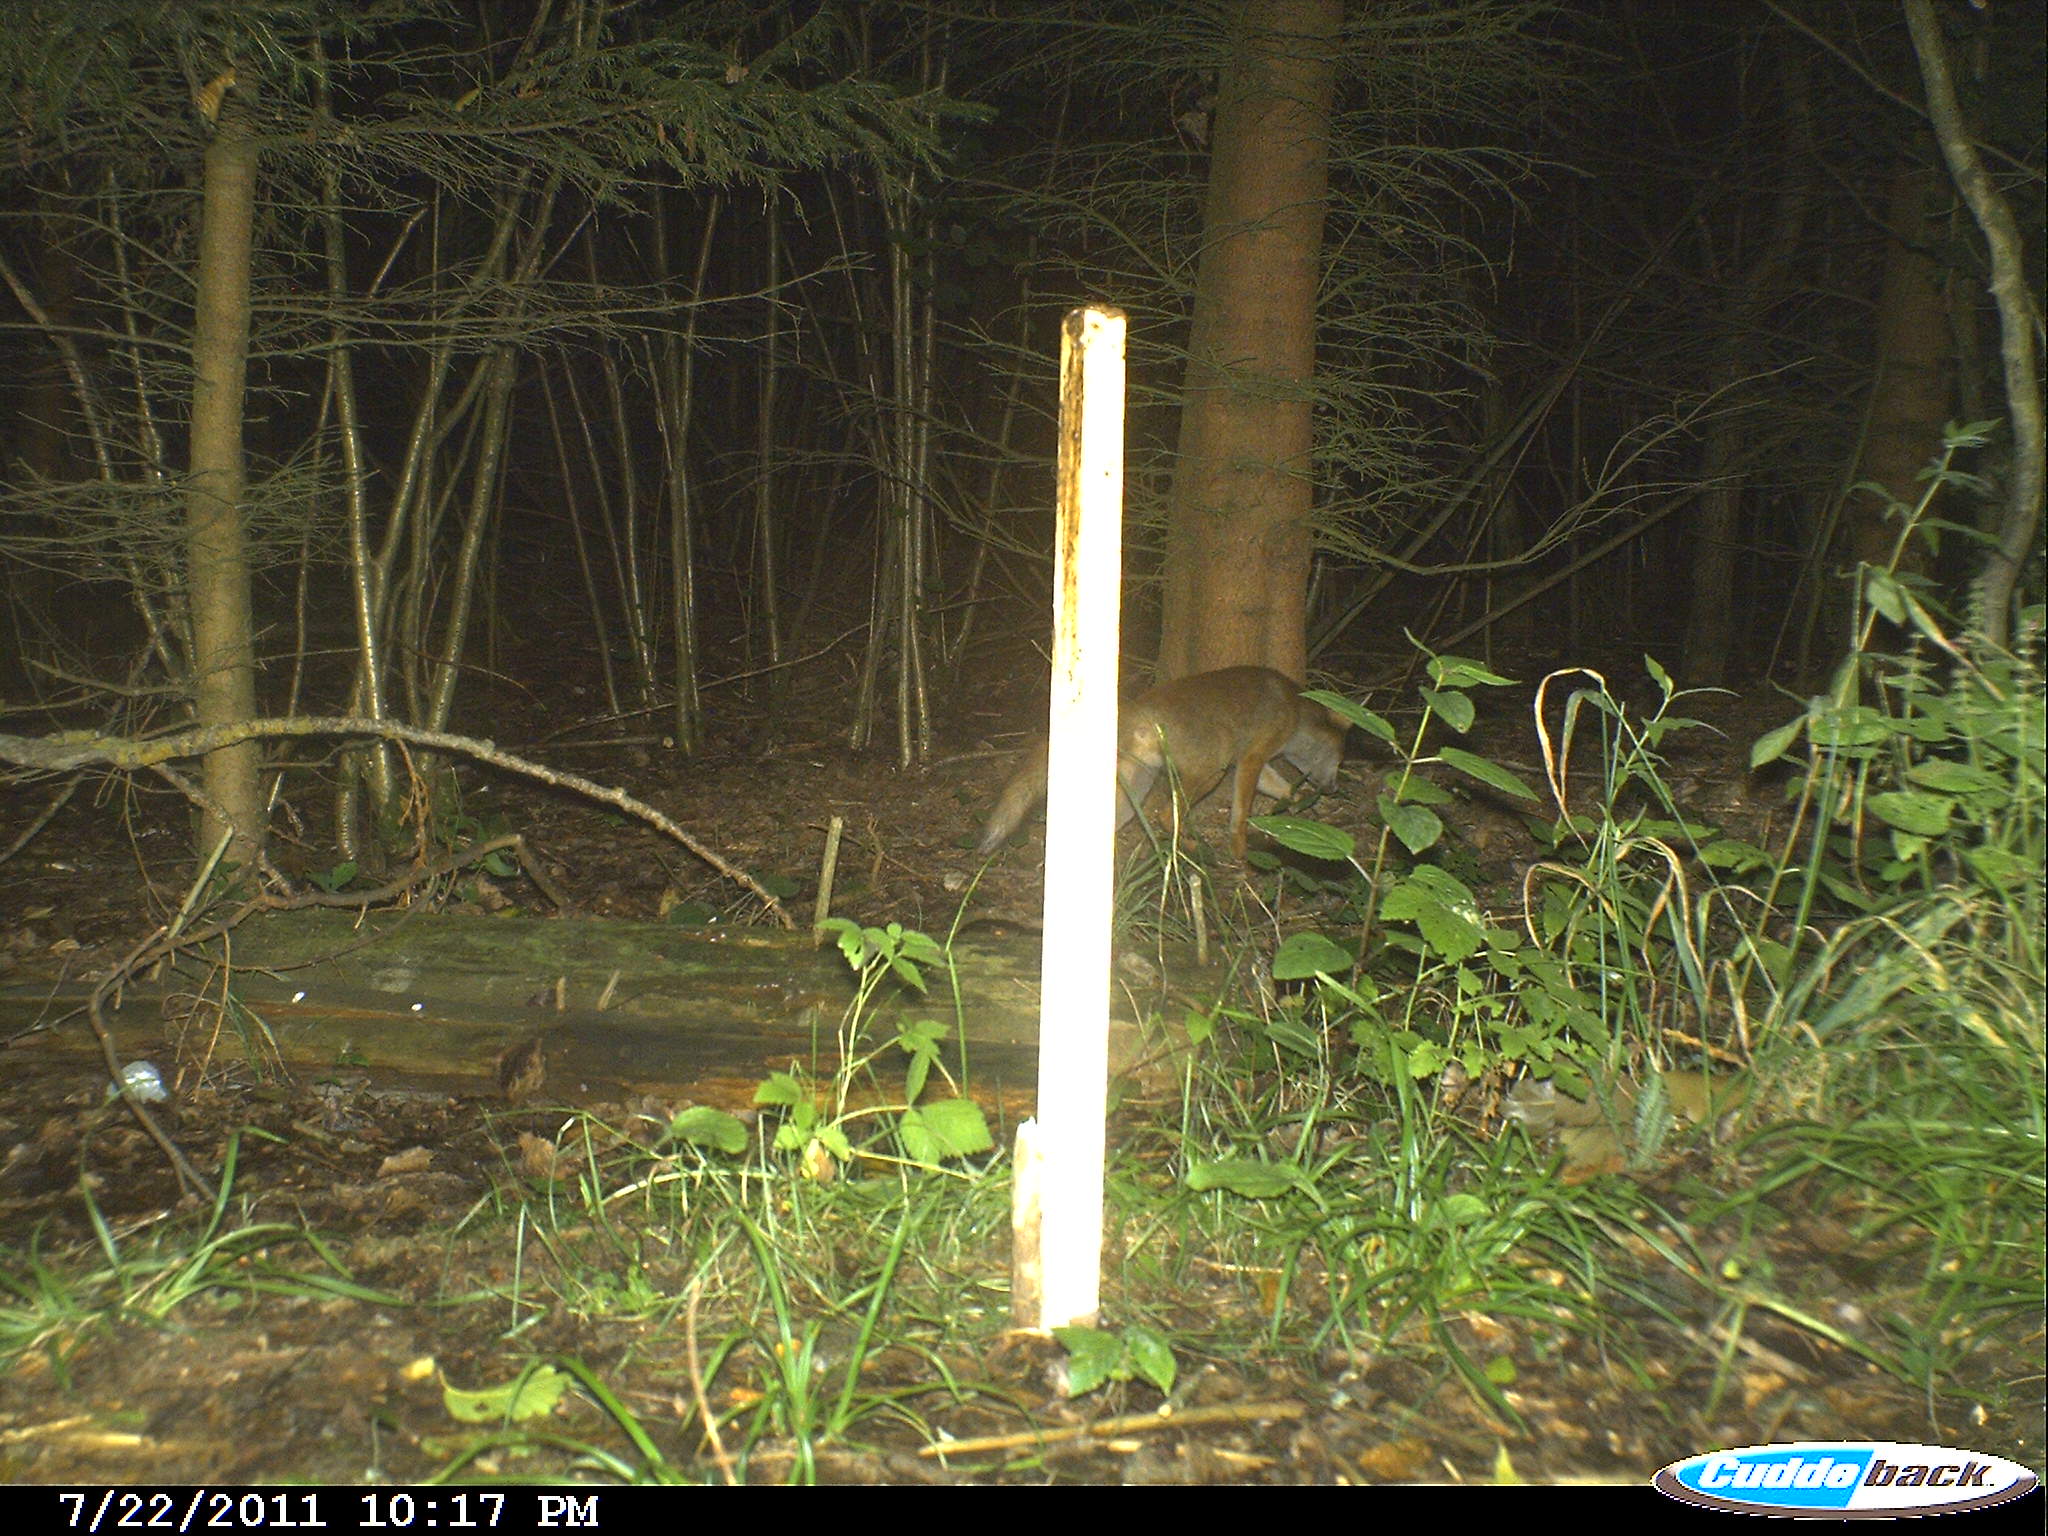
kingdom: Animalia
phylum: Chordata
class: Mammalia
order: Carnivora
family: Canidae
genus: Vulpes
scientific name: Vulpes vulpes
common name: Red fox
